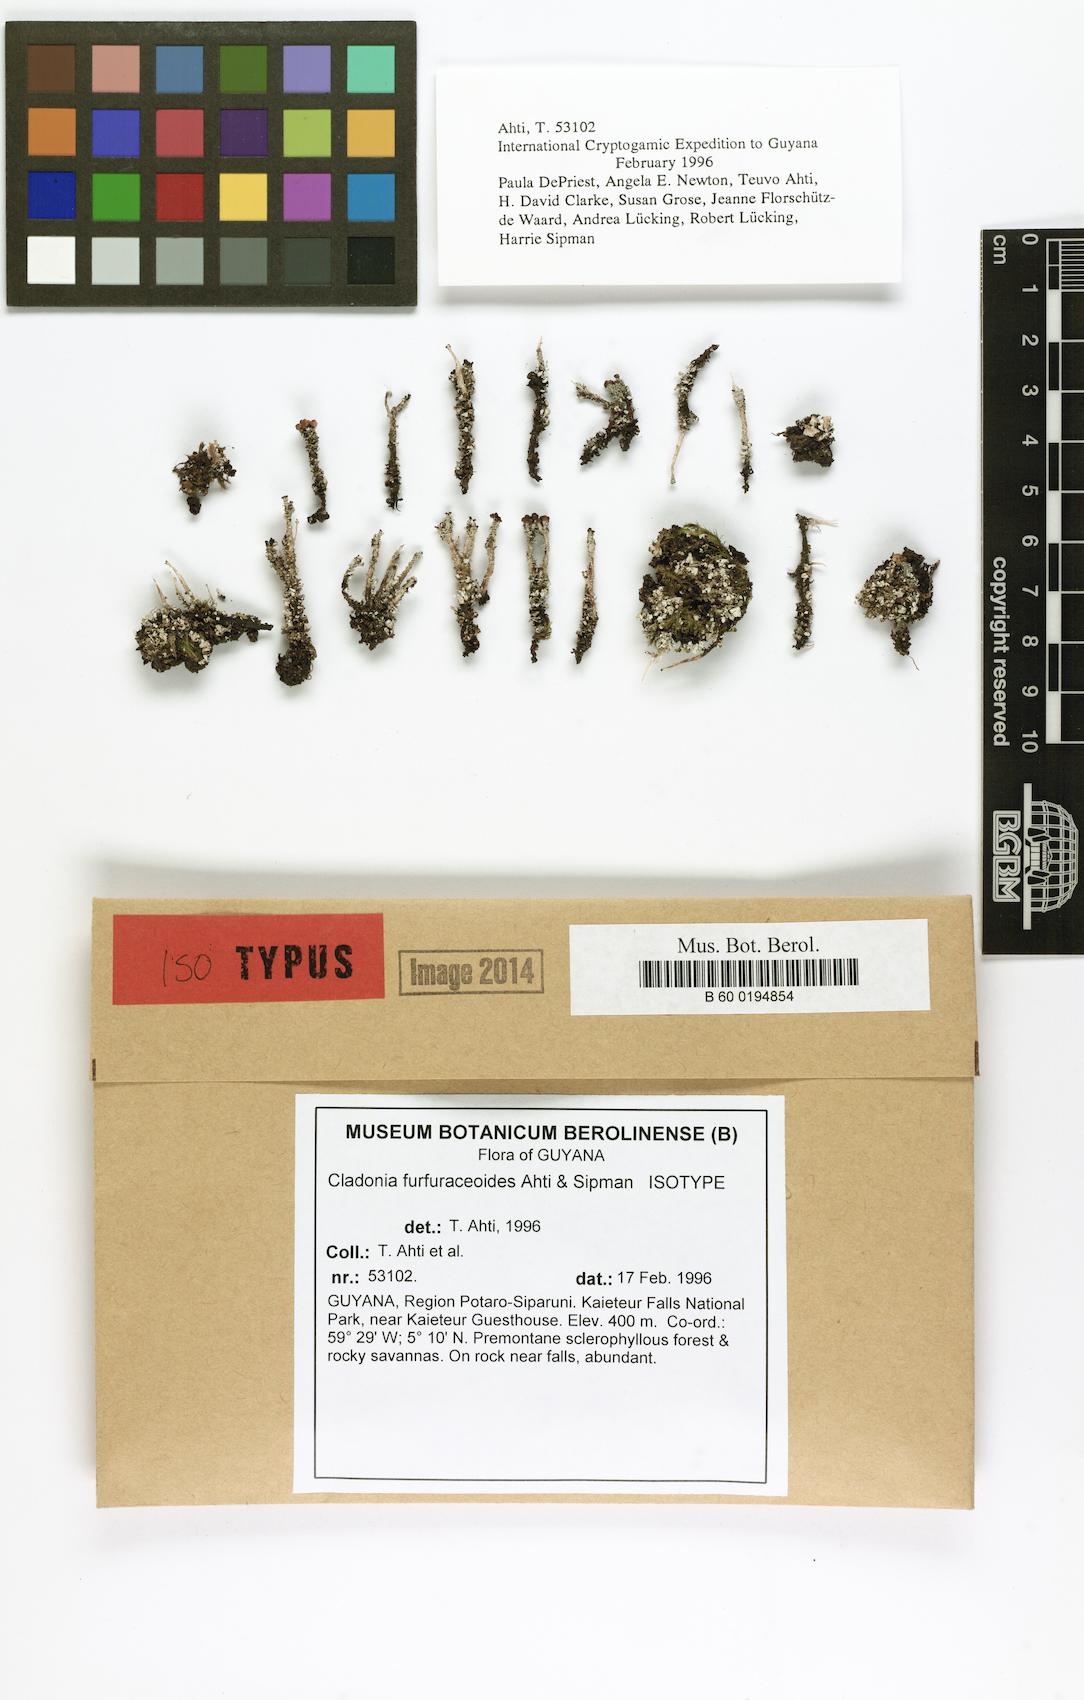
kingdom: Fungi
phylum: Ascomycota
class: Lecanoromycetes
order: Lecanorales
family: Cladoniaceae
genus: Cladonia
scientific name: Cladonia furfuraceoides
